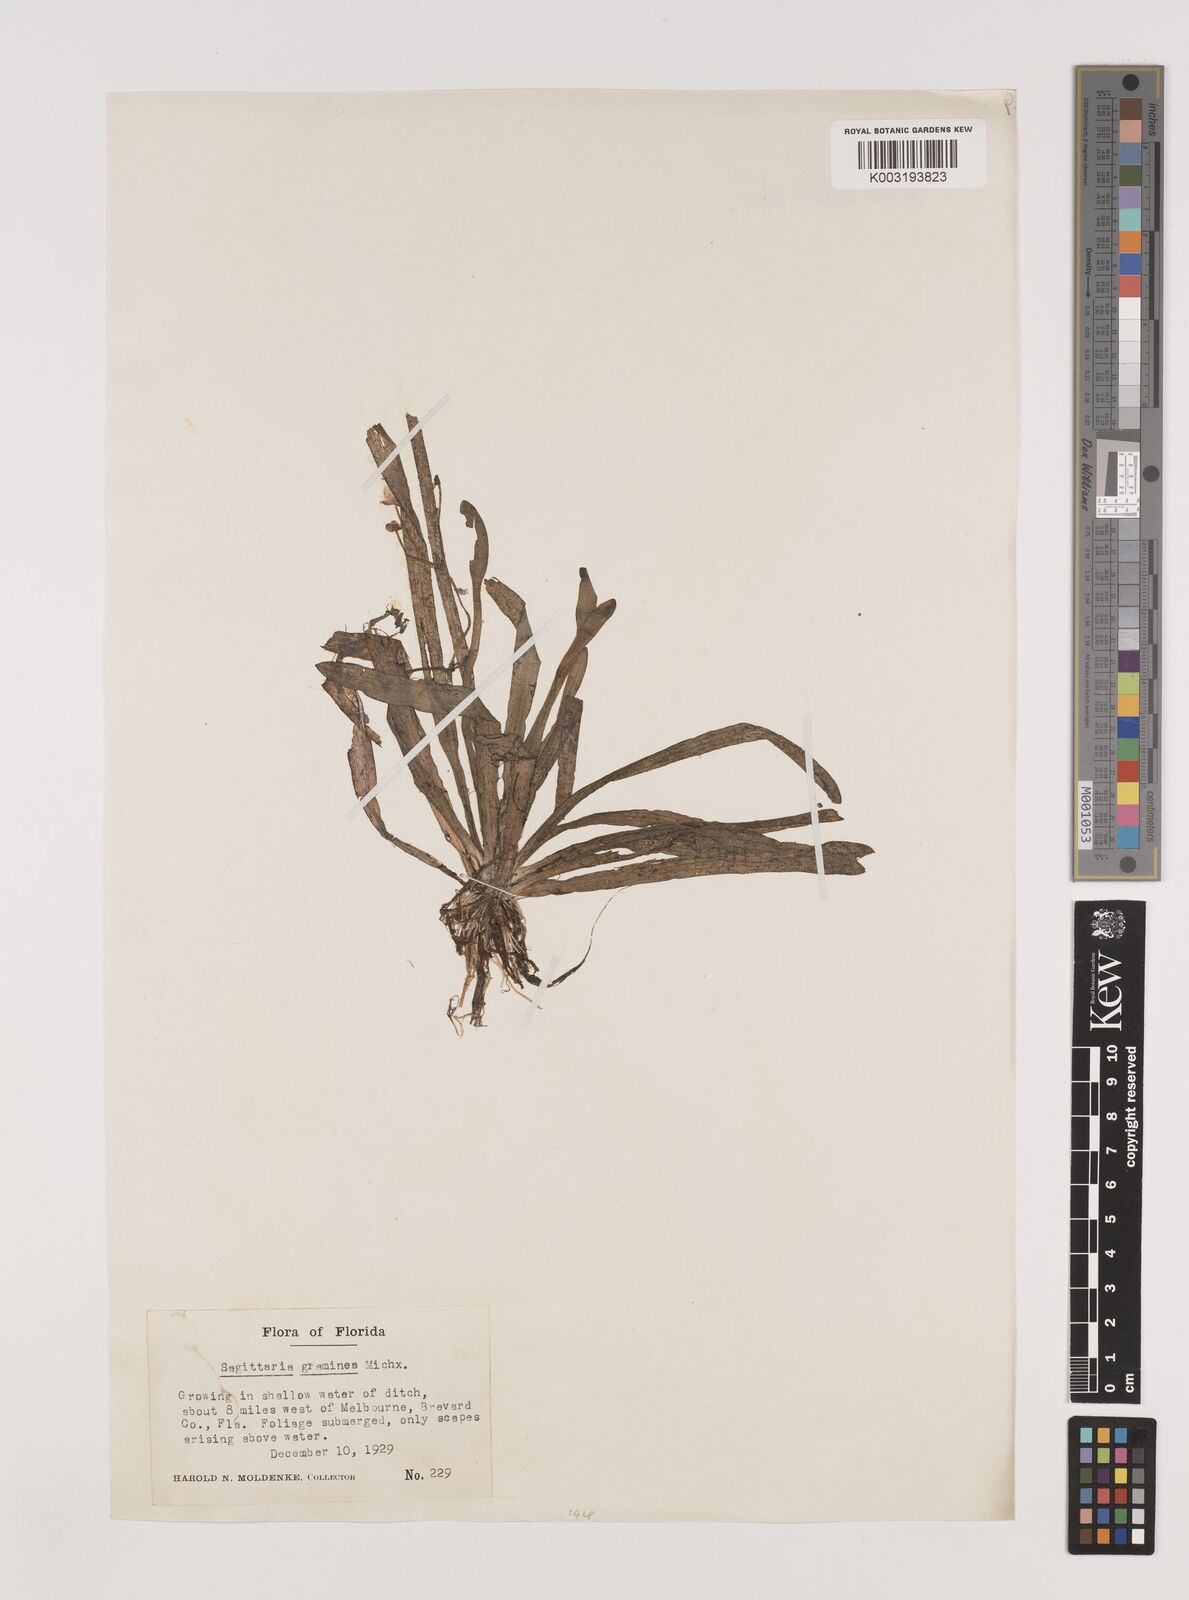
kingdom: Plantae
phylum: Tracheophyta
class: Liliopsida
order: Alismatales
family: Alismataceae
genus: Sagittaria
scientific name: Sagittaria graminea
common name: Grass-leaved arrowhead
